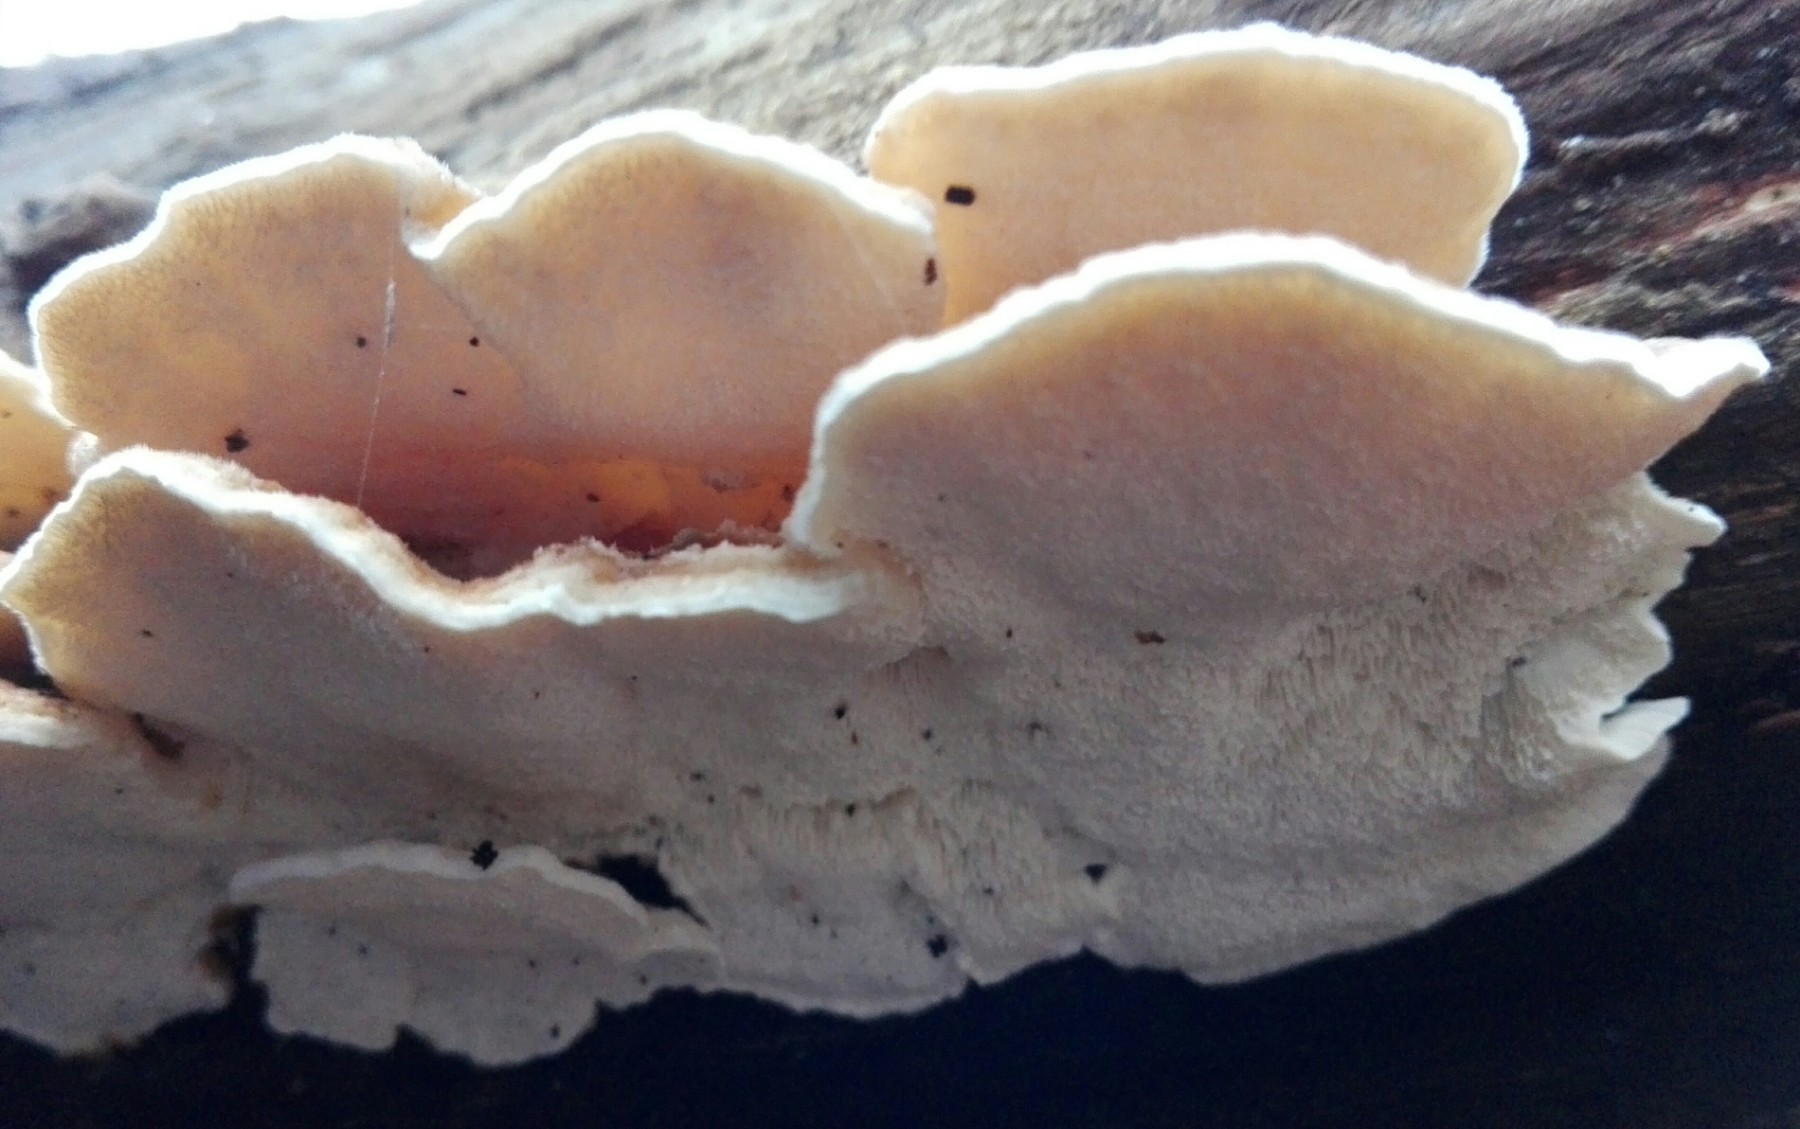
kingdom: Fungi
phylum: Basidiomycota
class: Agaricomycetes
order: Polyporales
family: Polyporaceae
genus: Trametes
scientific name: Trametes ochracea
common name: bæltet læderporesvamp
